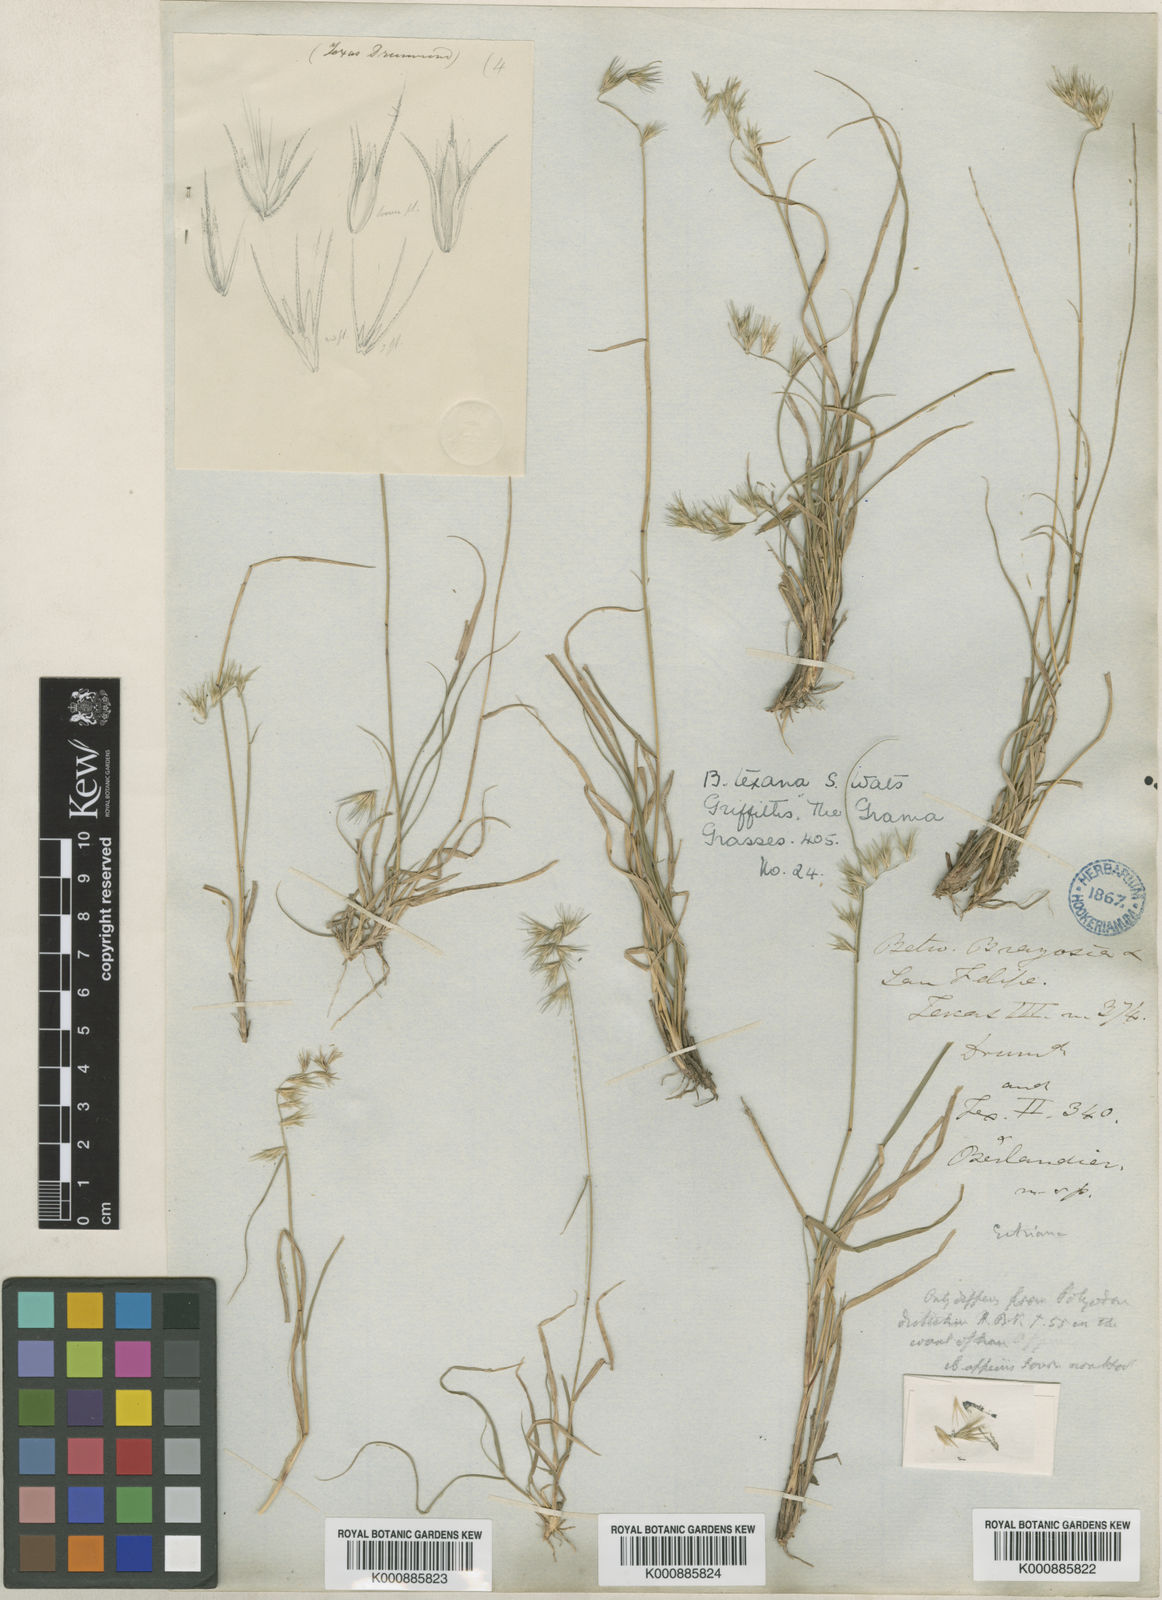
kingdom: Plantae
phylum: Tracheophyta
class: Magnoliopsida
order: Lamiales
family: Bignoniaceae
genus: Adenocalymma
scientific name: Adenocalymma marginatum
